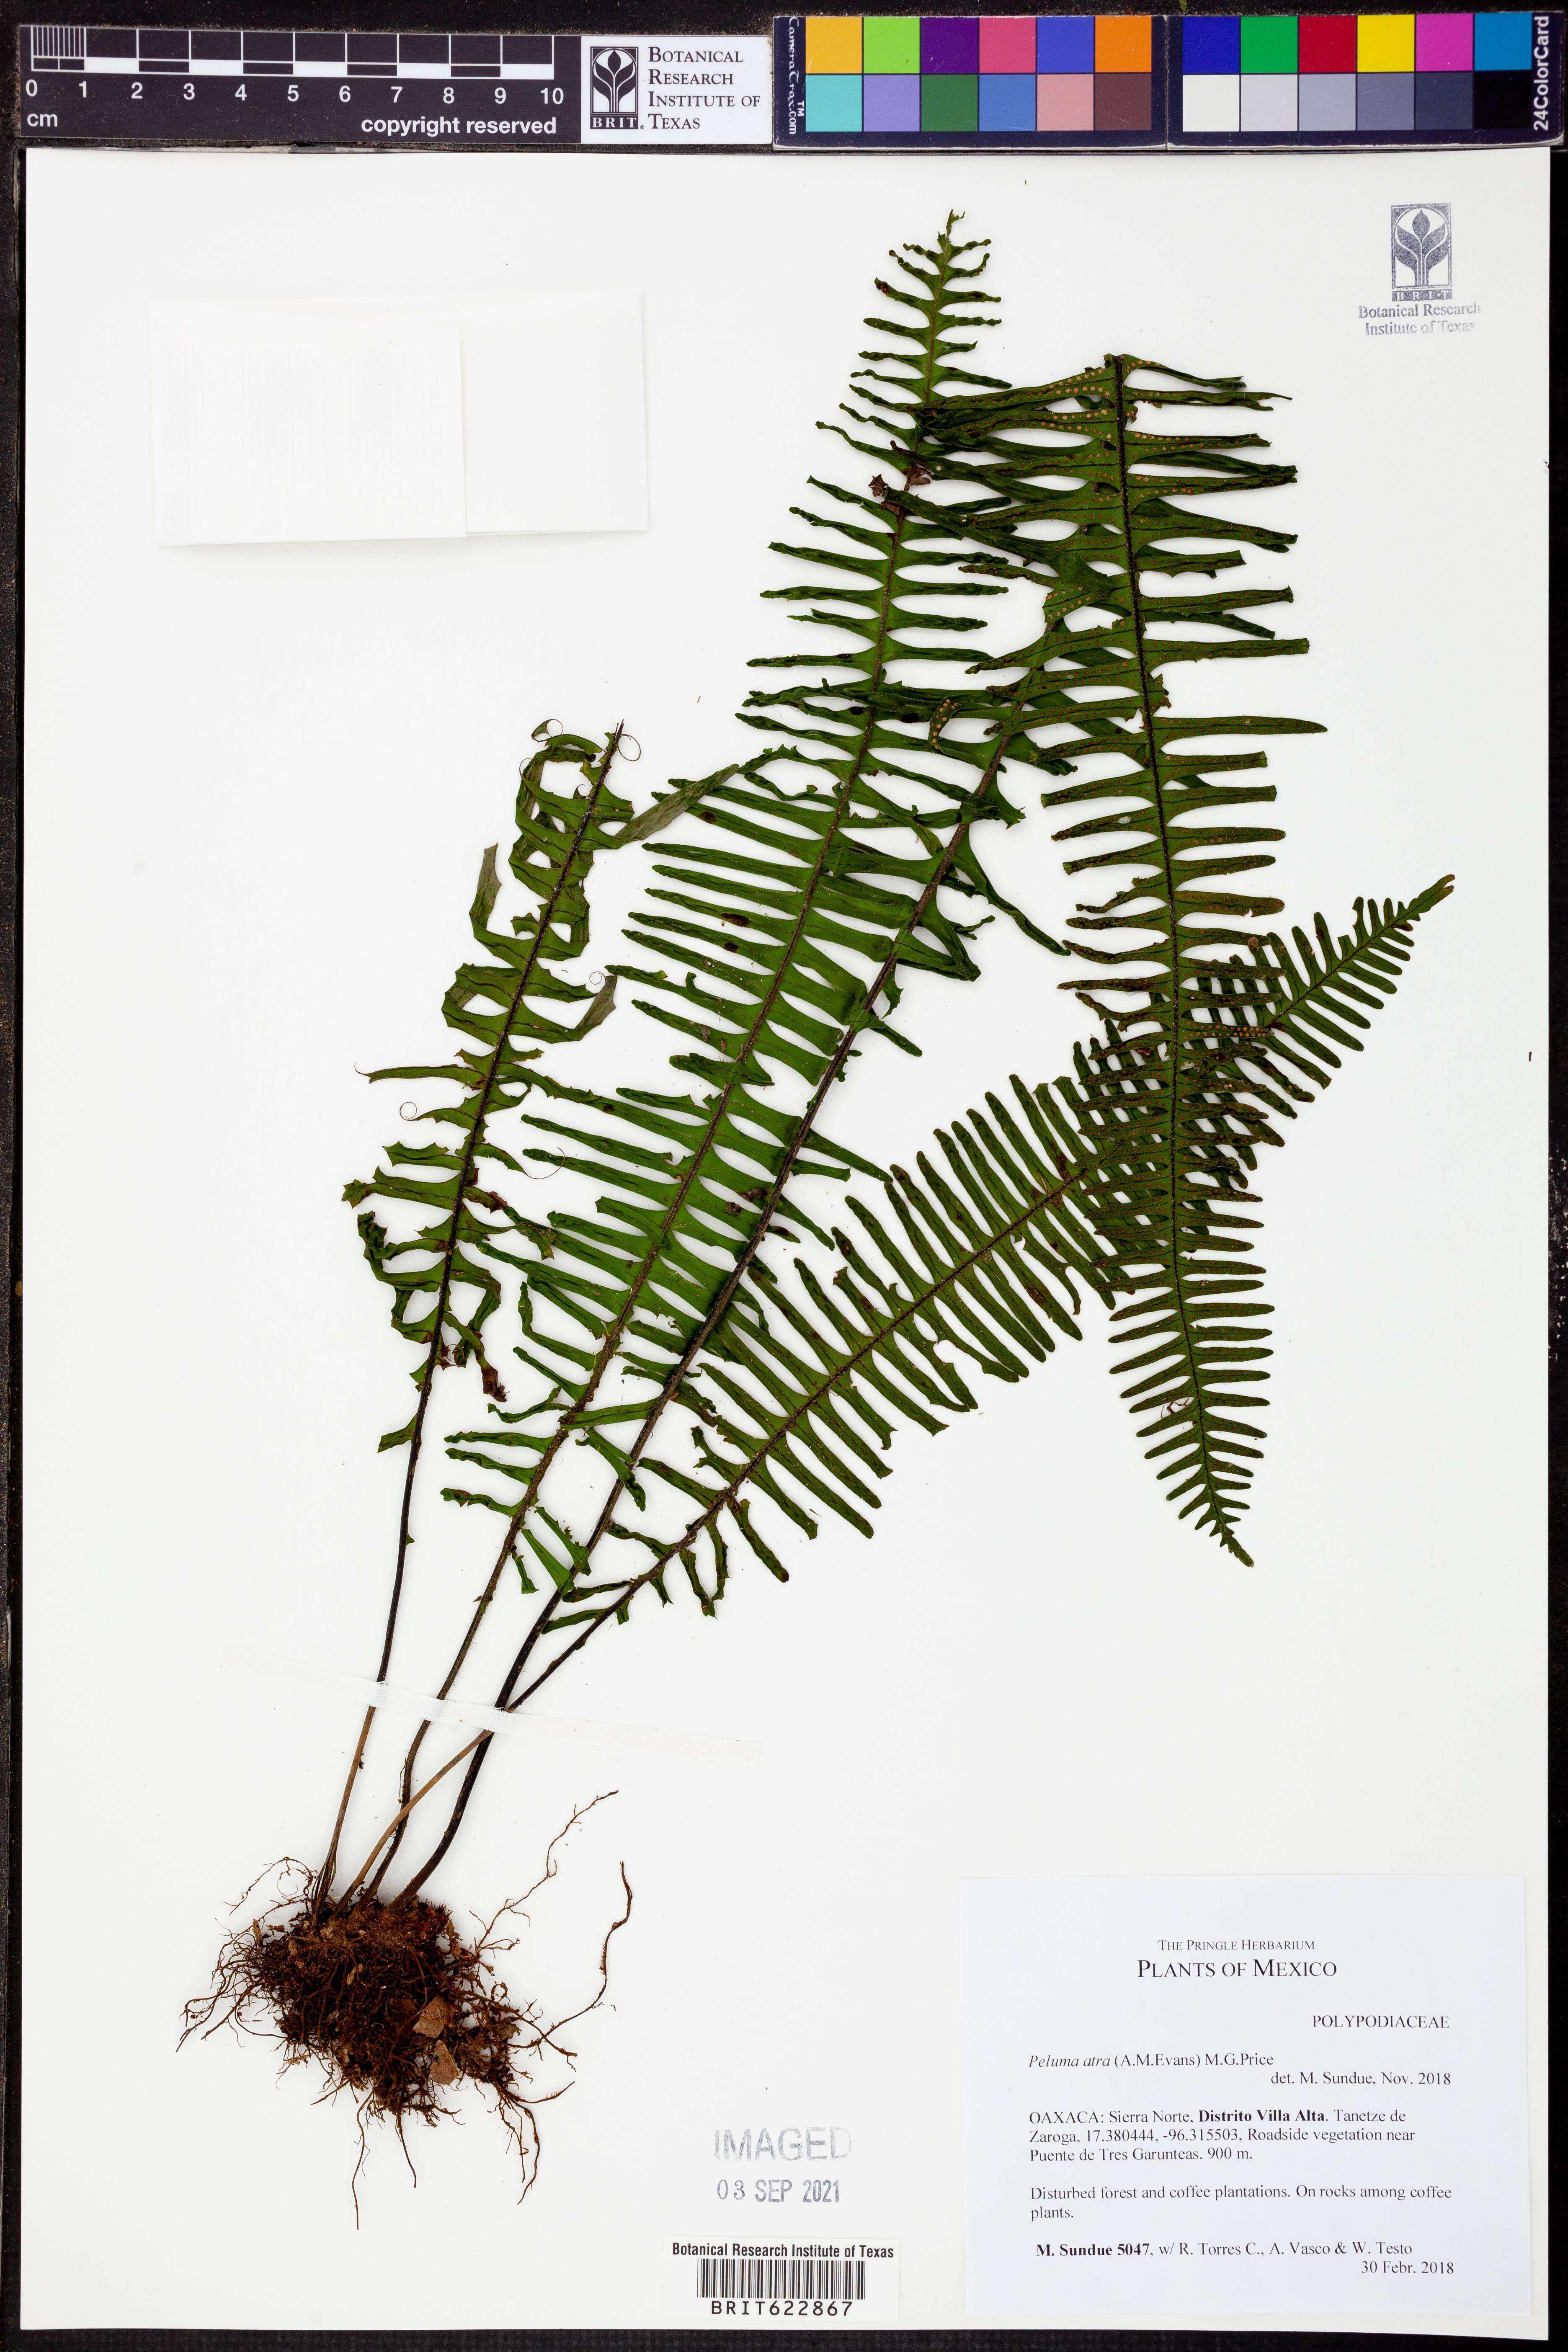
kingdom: Plantae
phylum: Tracheophyta
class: Polypodiopsida
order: Polypodiales
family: Polypodiaceae
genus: Pecluma
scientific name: Pecluma atra
